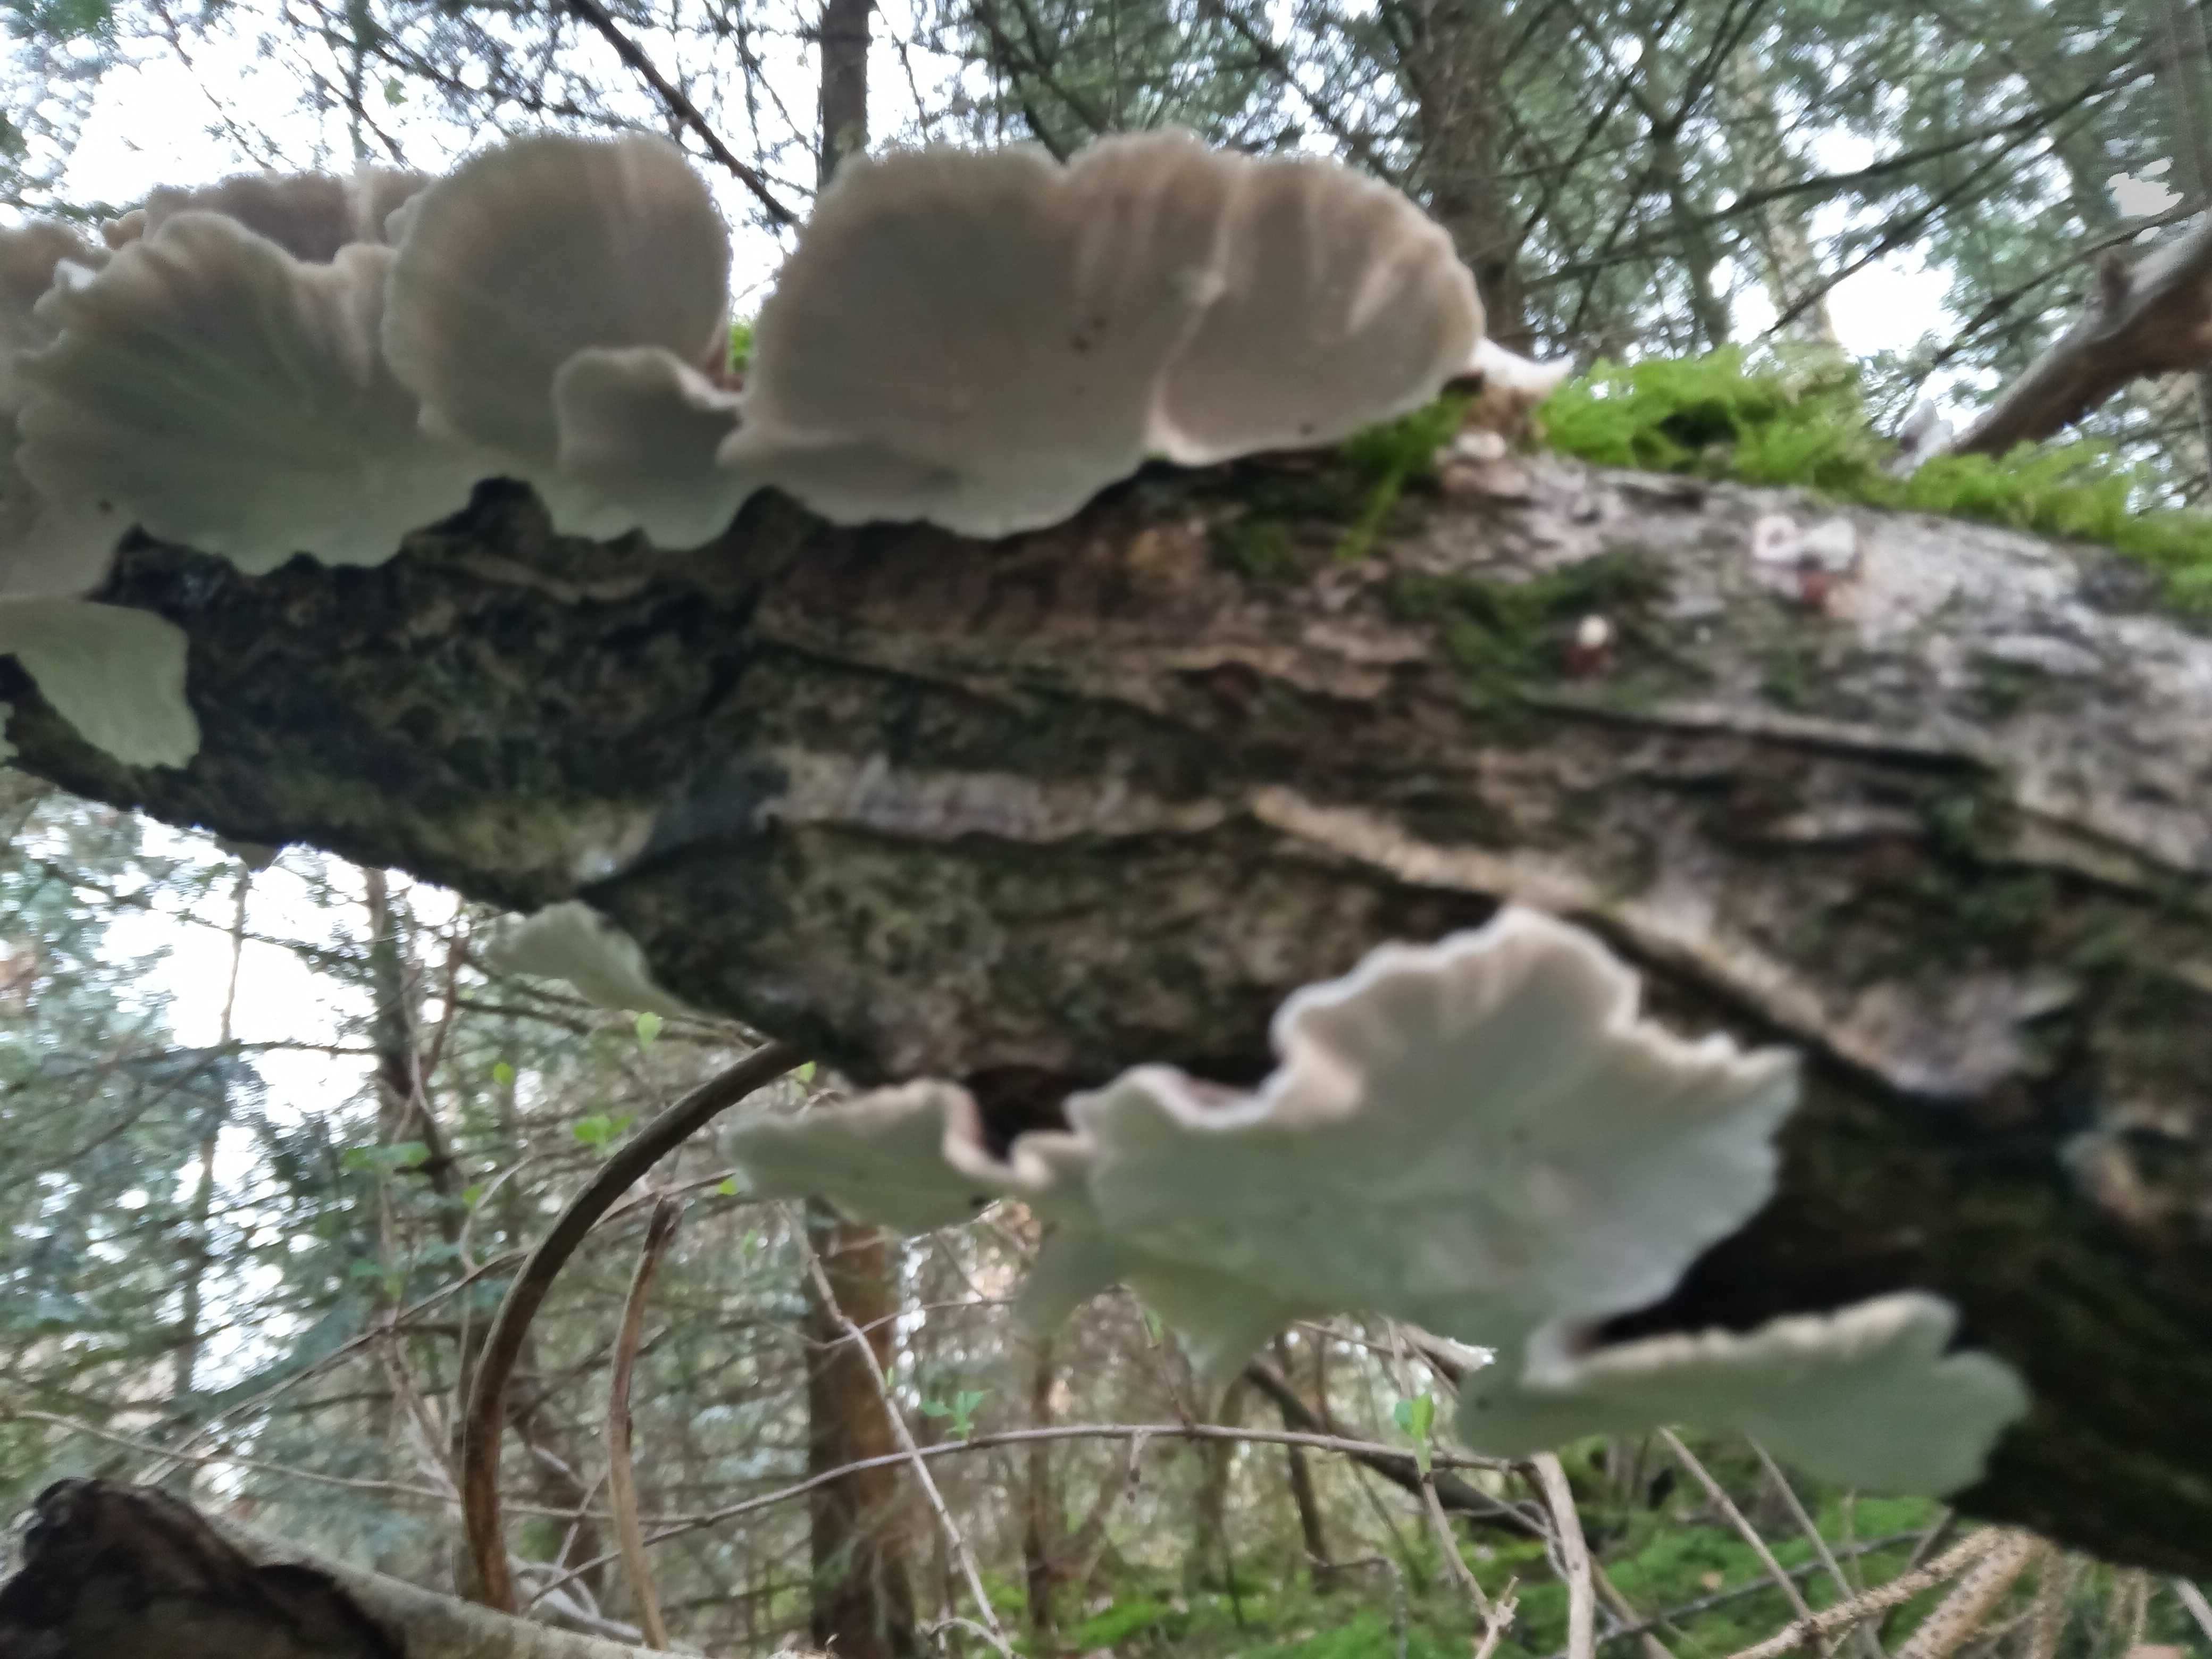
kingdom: Fungi
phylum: Basidiomycota
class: Agaricomycetes
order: Polyporales
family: Polyporaceae
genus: Trametes
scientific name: Trametes versicolor
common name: broget læderporesvamp
